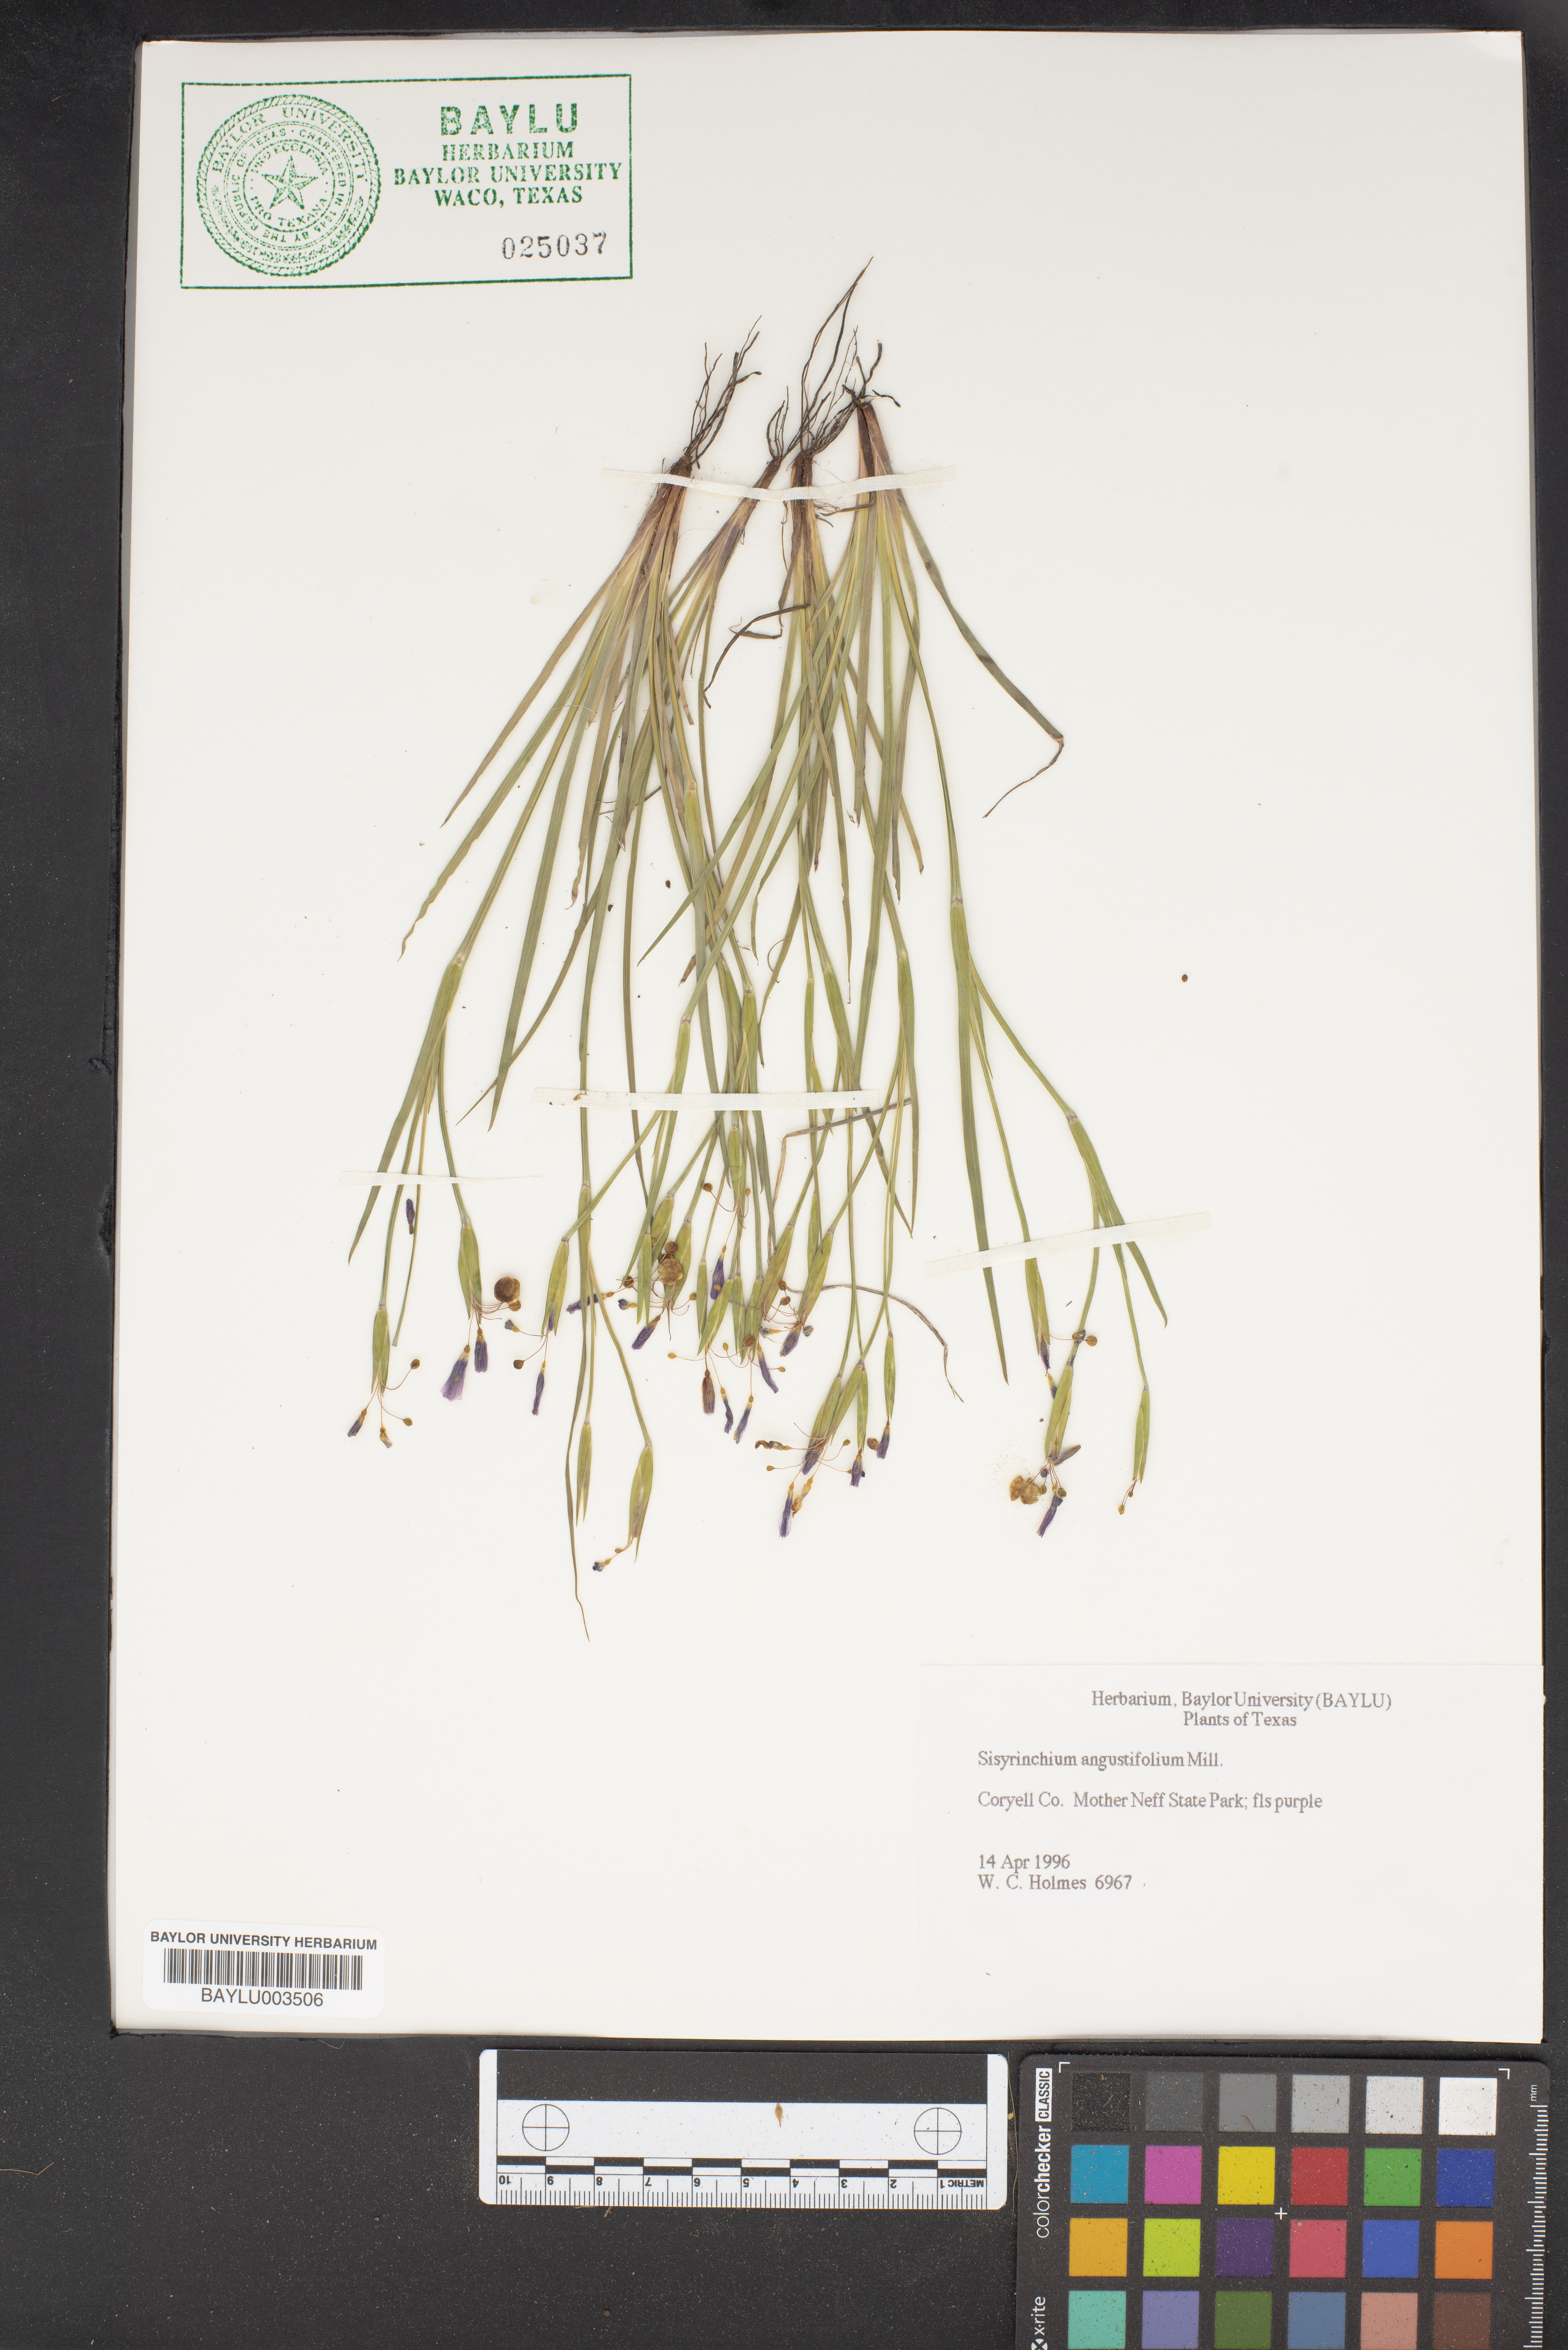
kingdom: Plantae
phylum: Tracheophyta
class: Liliopsida
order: Asparagales
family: Iridaceae
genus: Sisyrinchium
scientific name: Sisyrinchium angustifolium
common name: Narrow-leaf blue-eyed-grass
